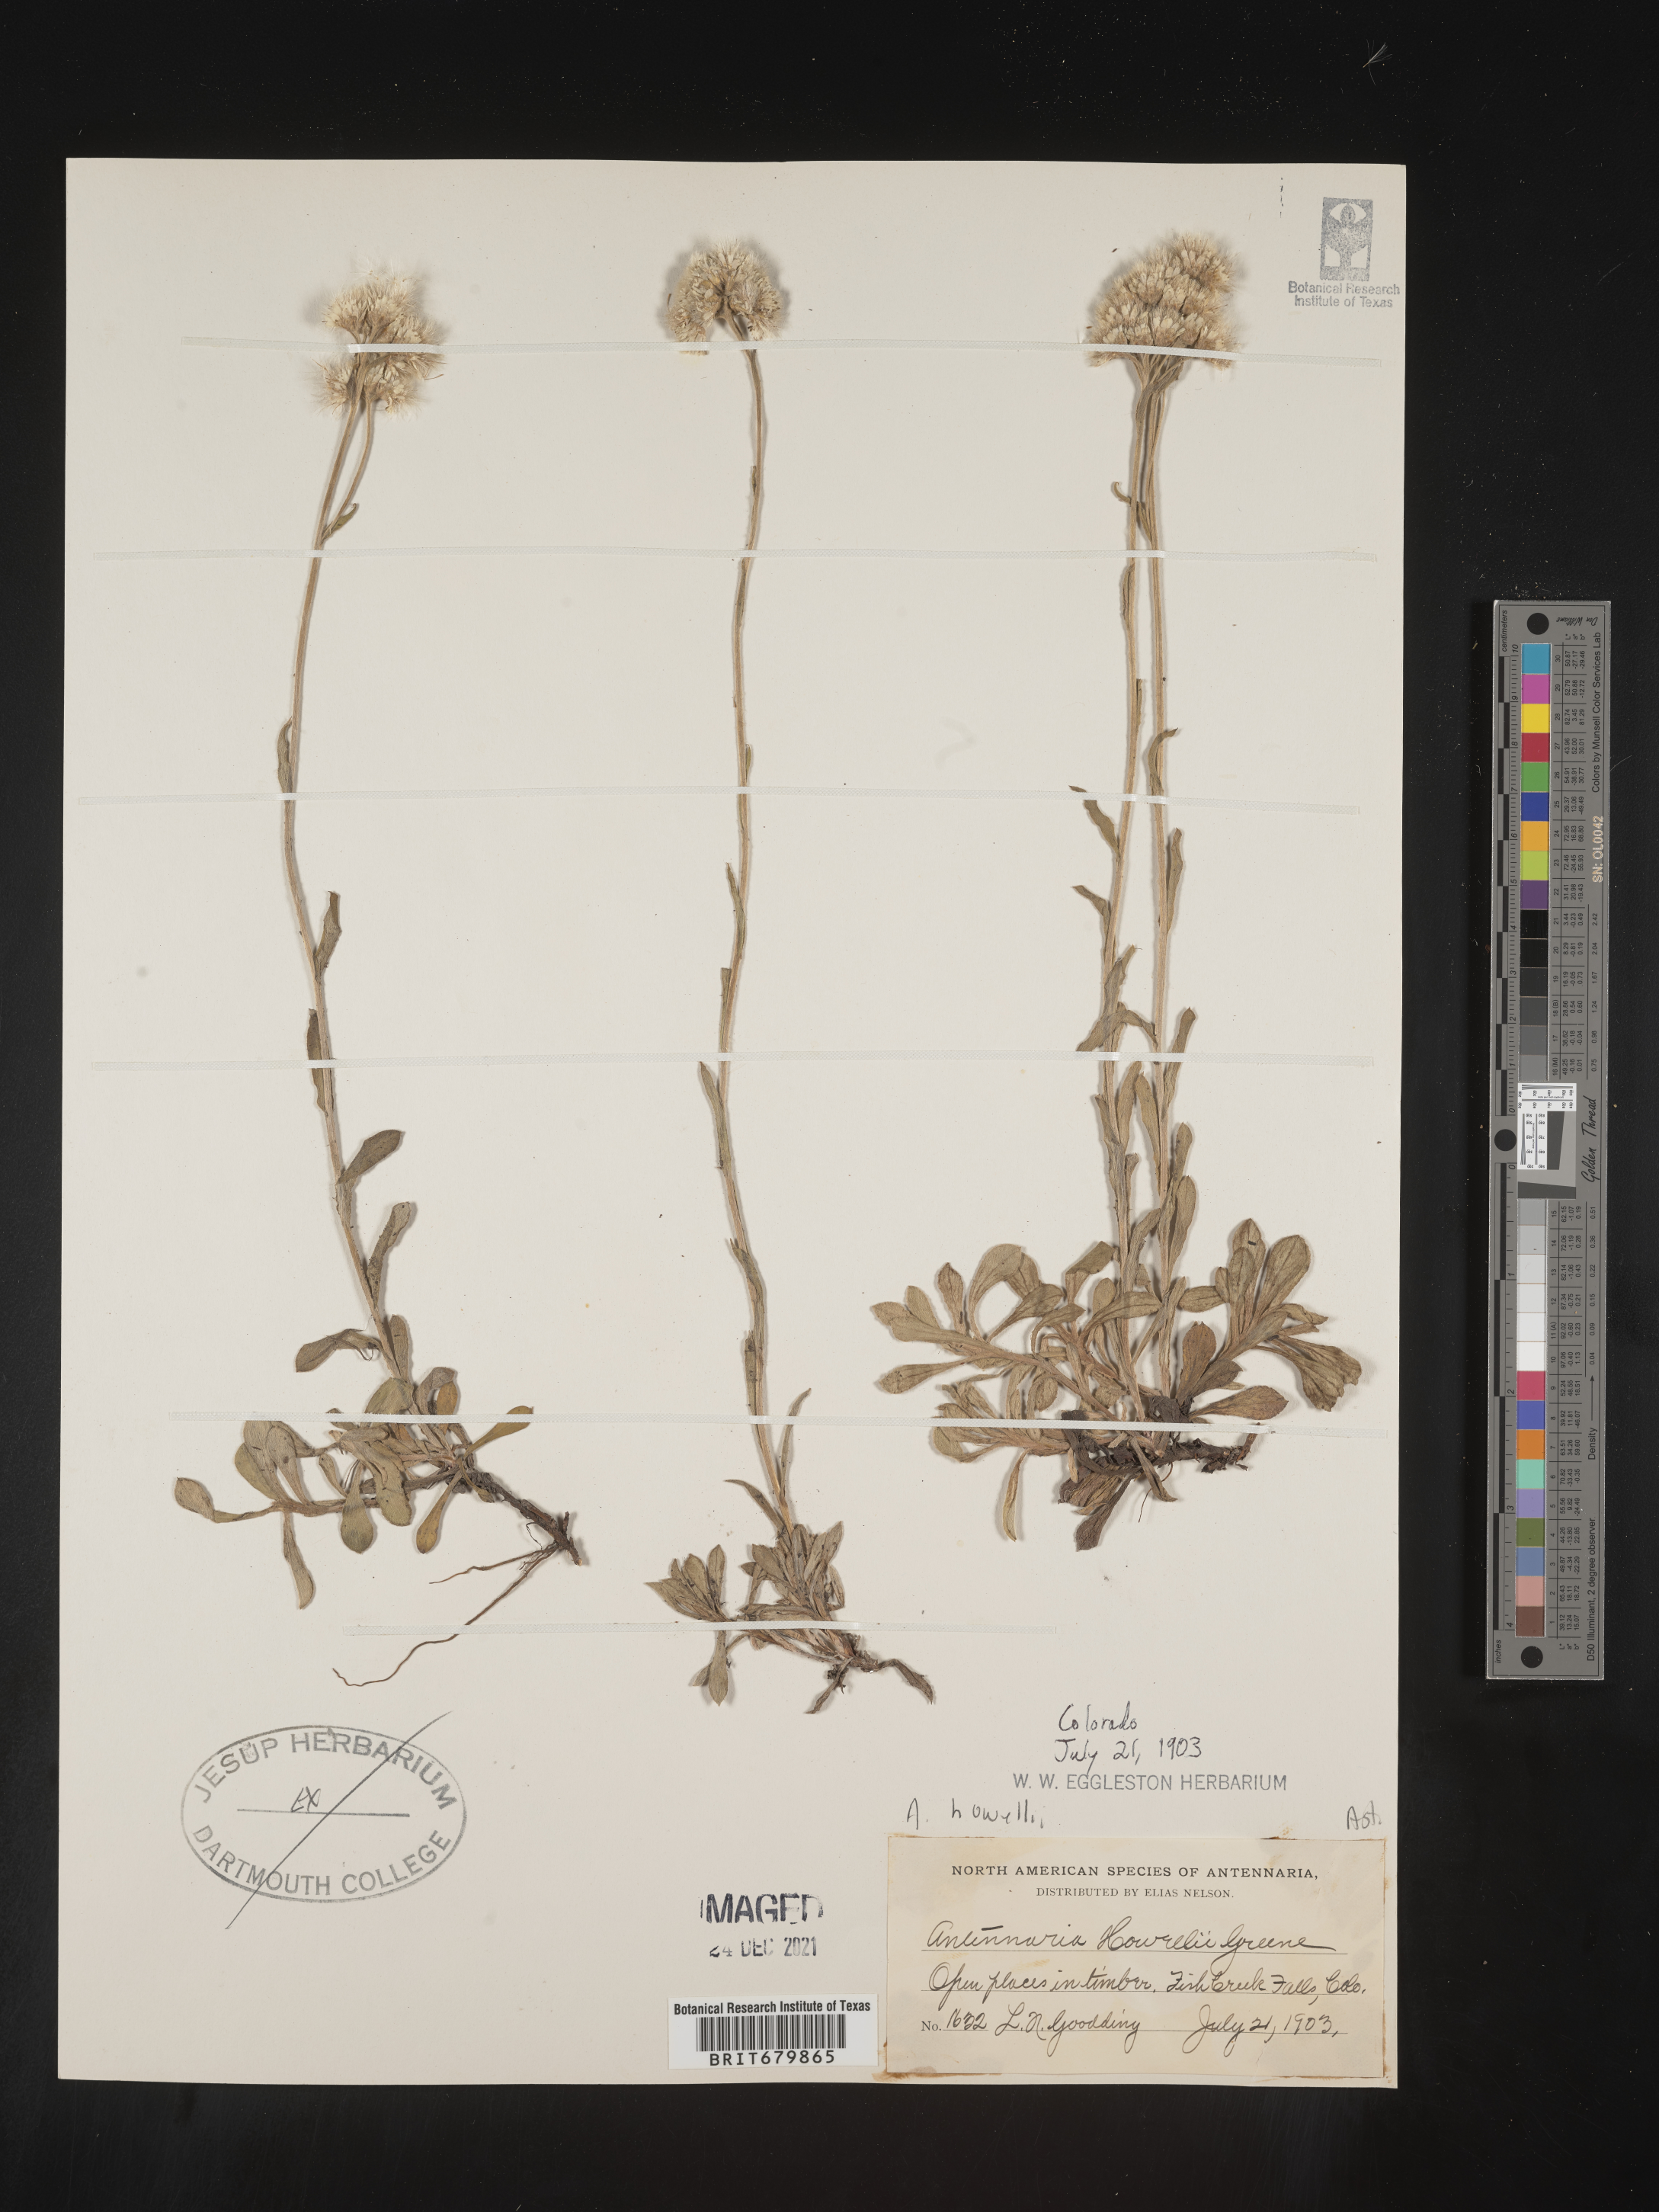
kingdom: Plantae
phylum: Tracheophyta
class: Magnoliopsida
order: Asterales
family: Asteraceae
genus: Antennaria
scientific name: Antennaria howellii
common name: Howell's pussytoes
